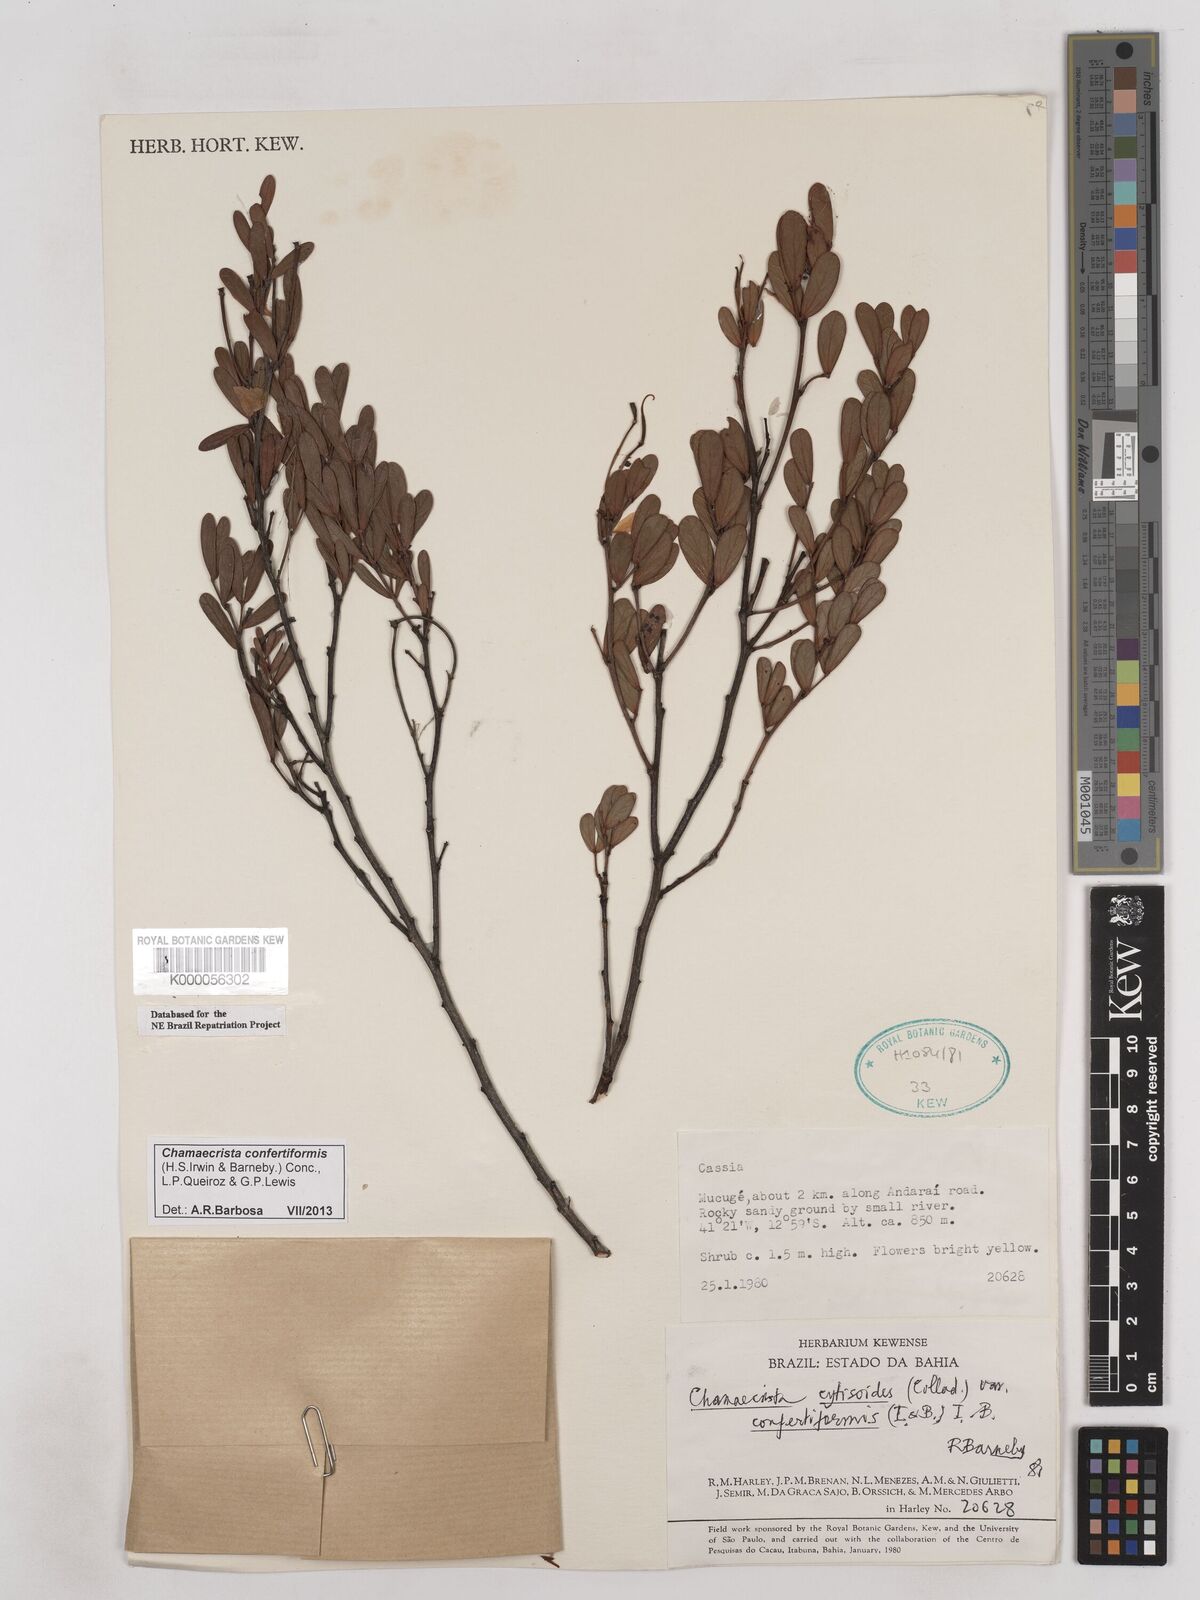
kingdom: Plantae
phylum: Tracheophyta
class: Magnoliopsida
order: Fabales
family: Fabaceae
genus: Chamaecrista
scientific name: Chamaecrista confertiformis
